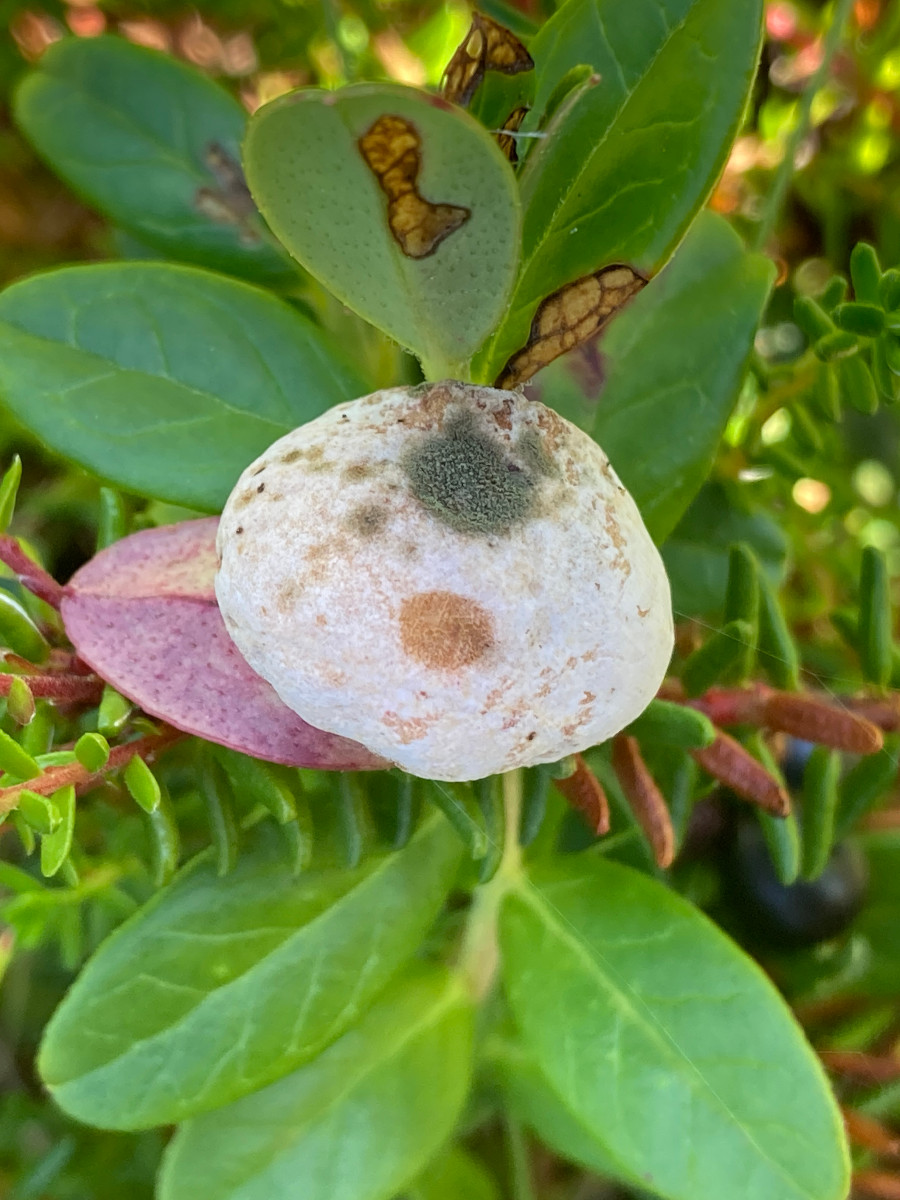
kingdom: Fungi
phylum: Basidiomycota
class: Exobasidiomycetes
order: Exobasidiales
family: Exobasidiaceae
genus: Exobasidium
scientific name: Exobasidium vaccinii
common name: tyttebærblad-bøllesvamp
